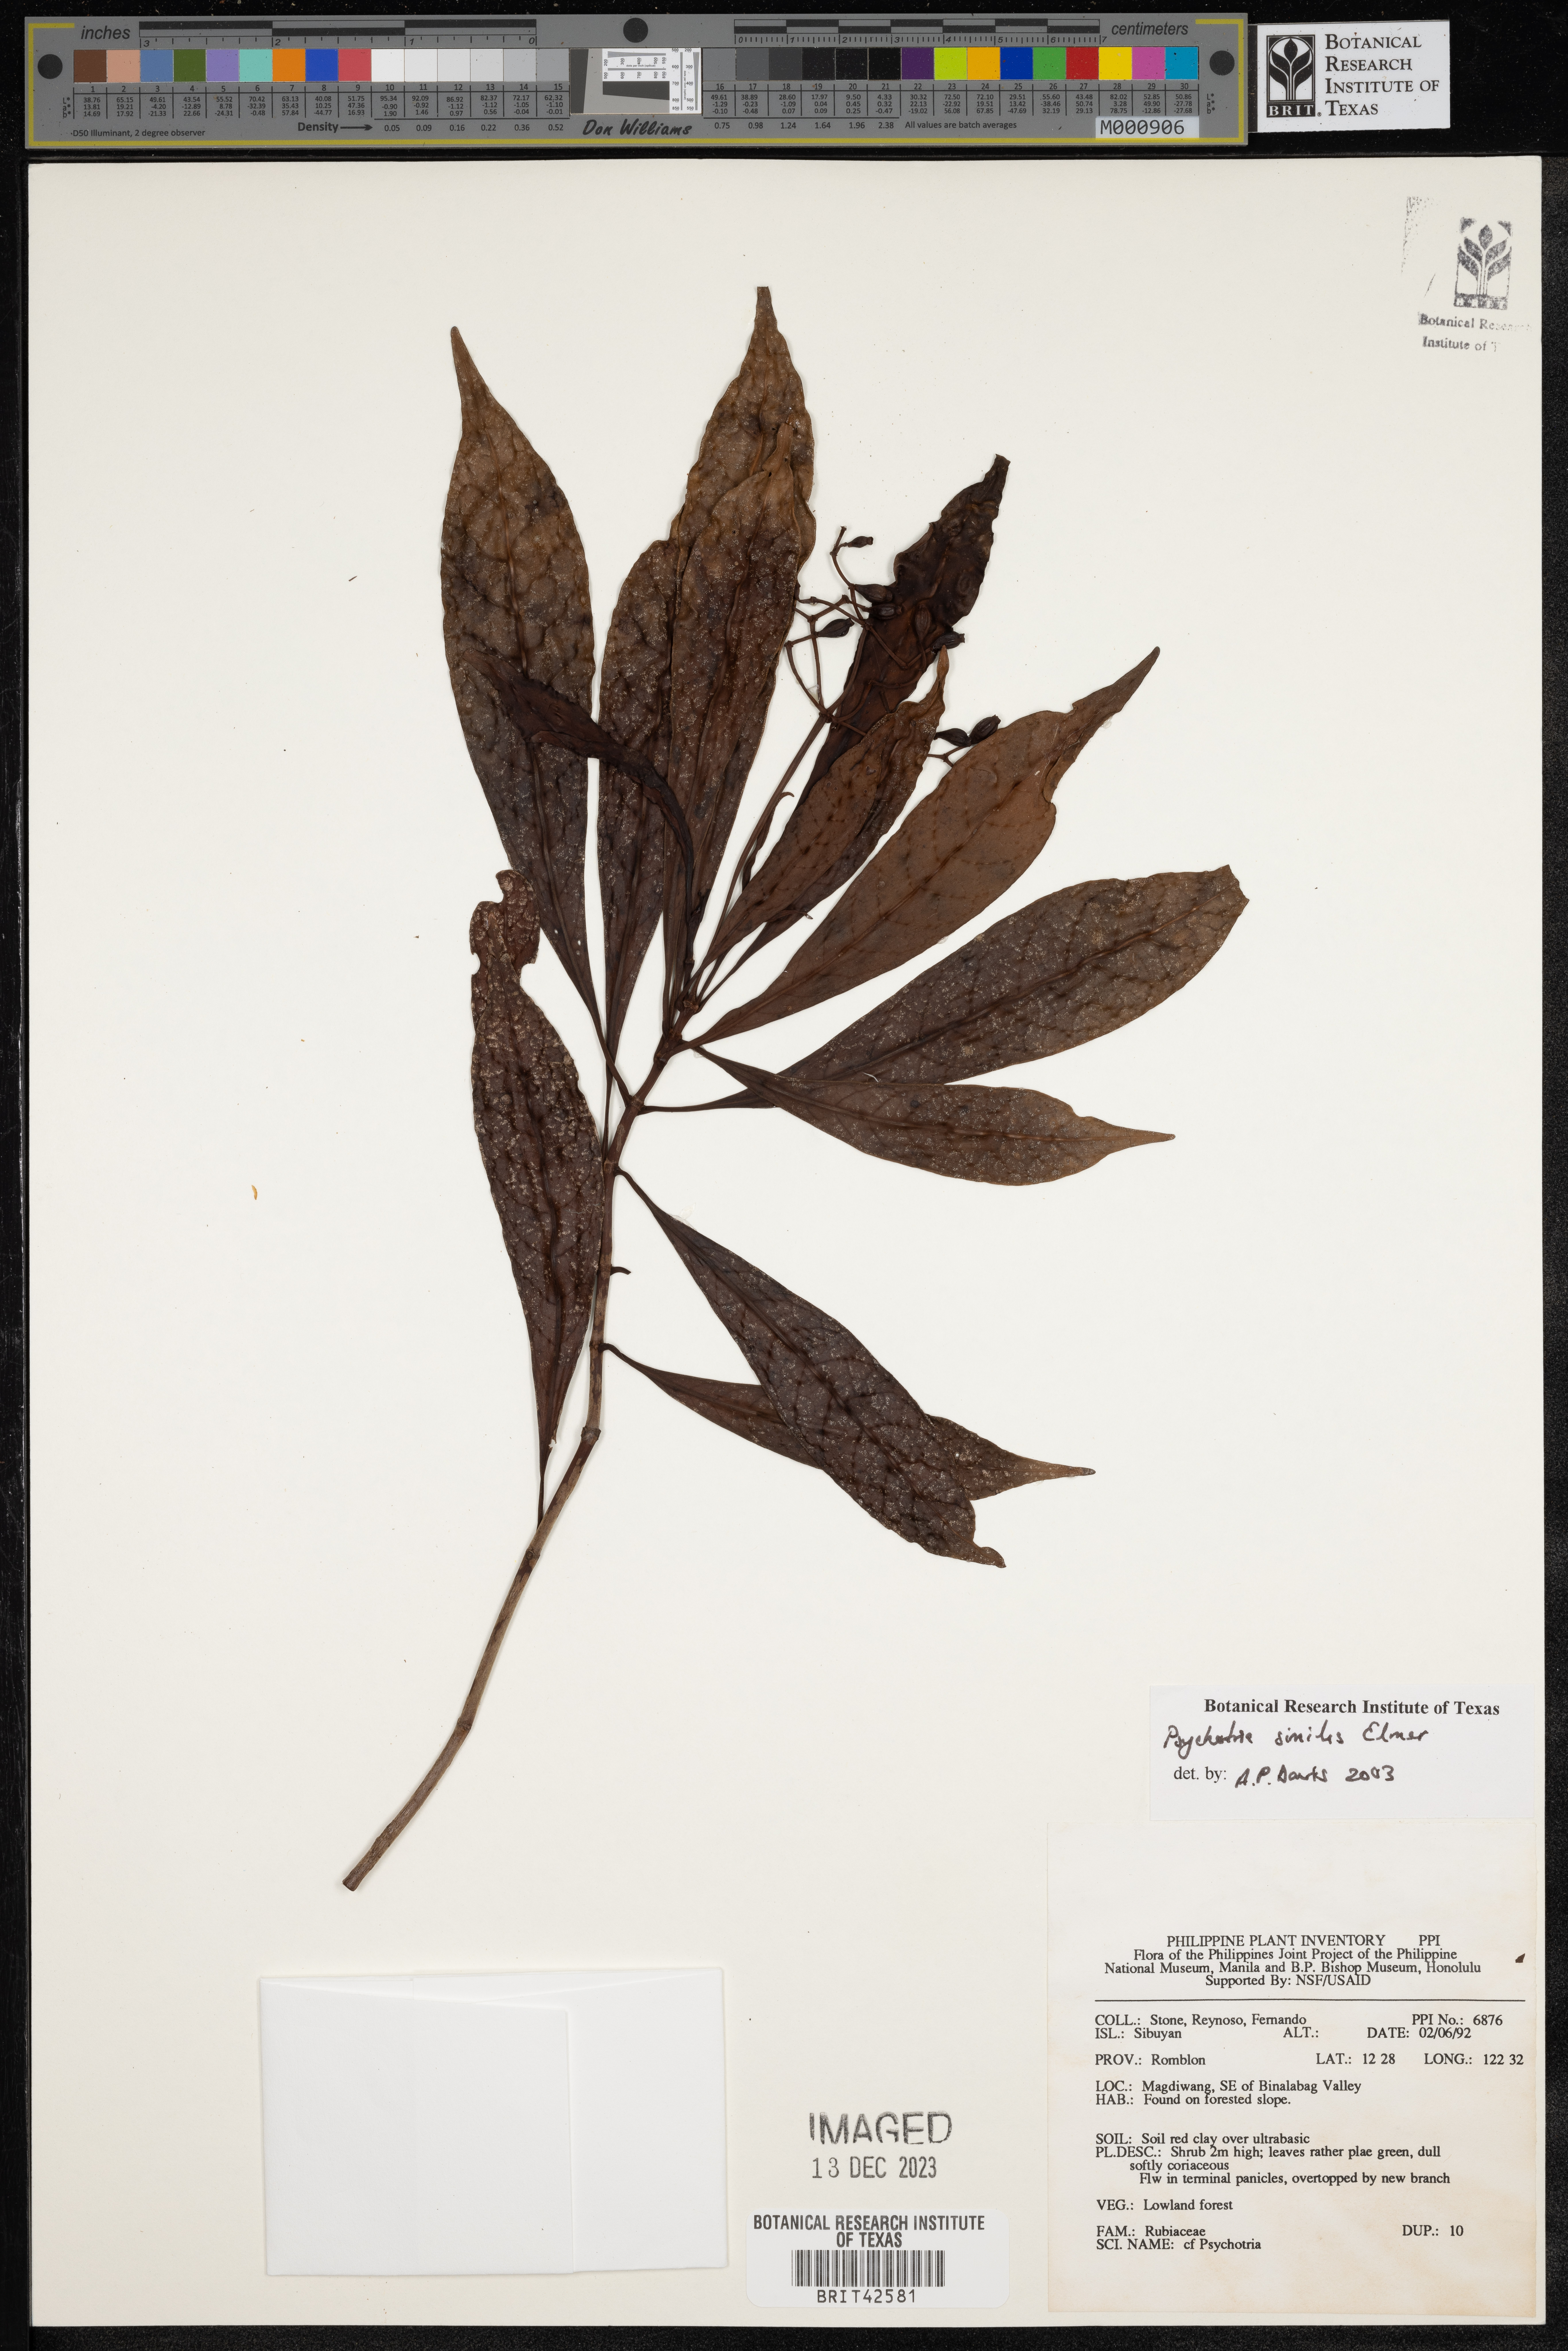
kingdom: Plantae
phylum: Tracheophyta
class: Magnoliopsida
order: Gentianales
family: Rubiaceae
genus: Psychotria
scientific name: Psychotria gitingensis
